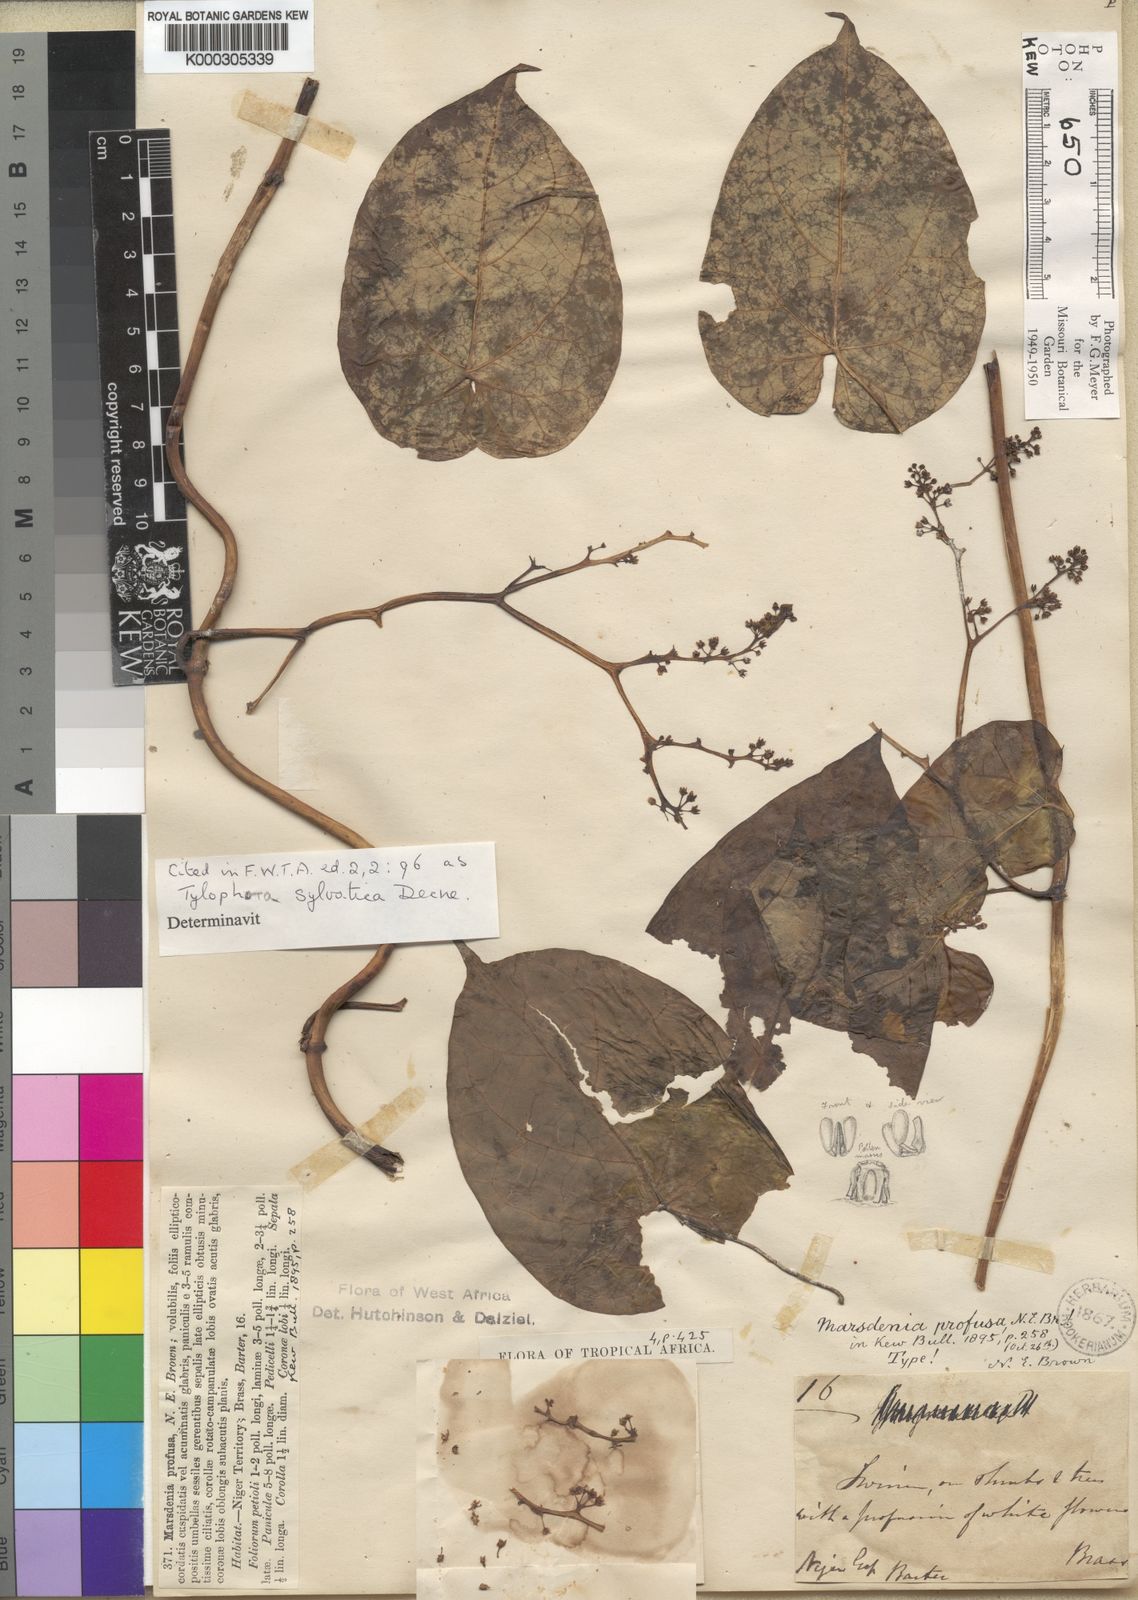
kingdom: Plantae
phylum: Tracheophyta
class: Magnoliopsida
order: Gentianales
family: Apocynaceae
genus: Vincetoxicum
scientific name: Vincetoxicum sylvaticum
